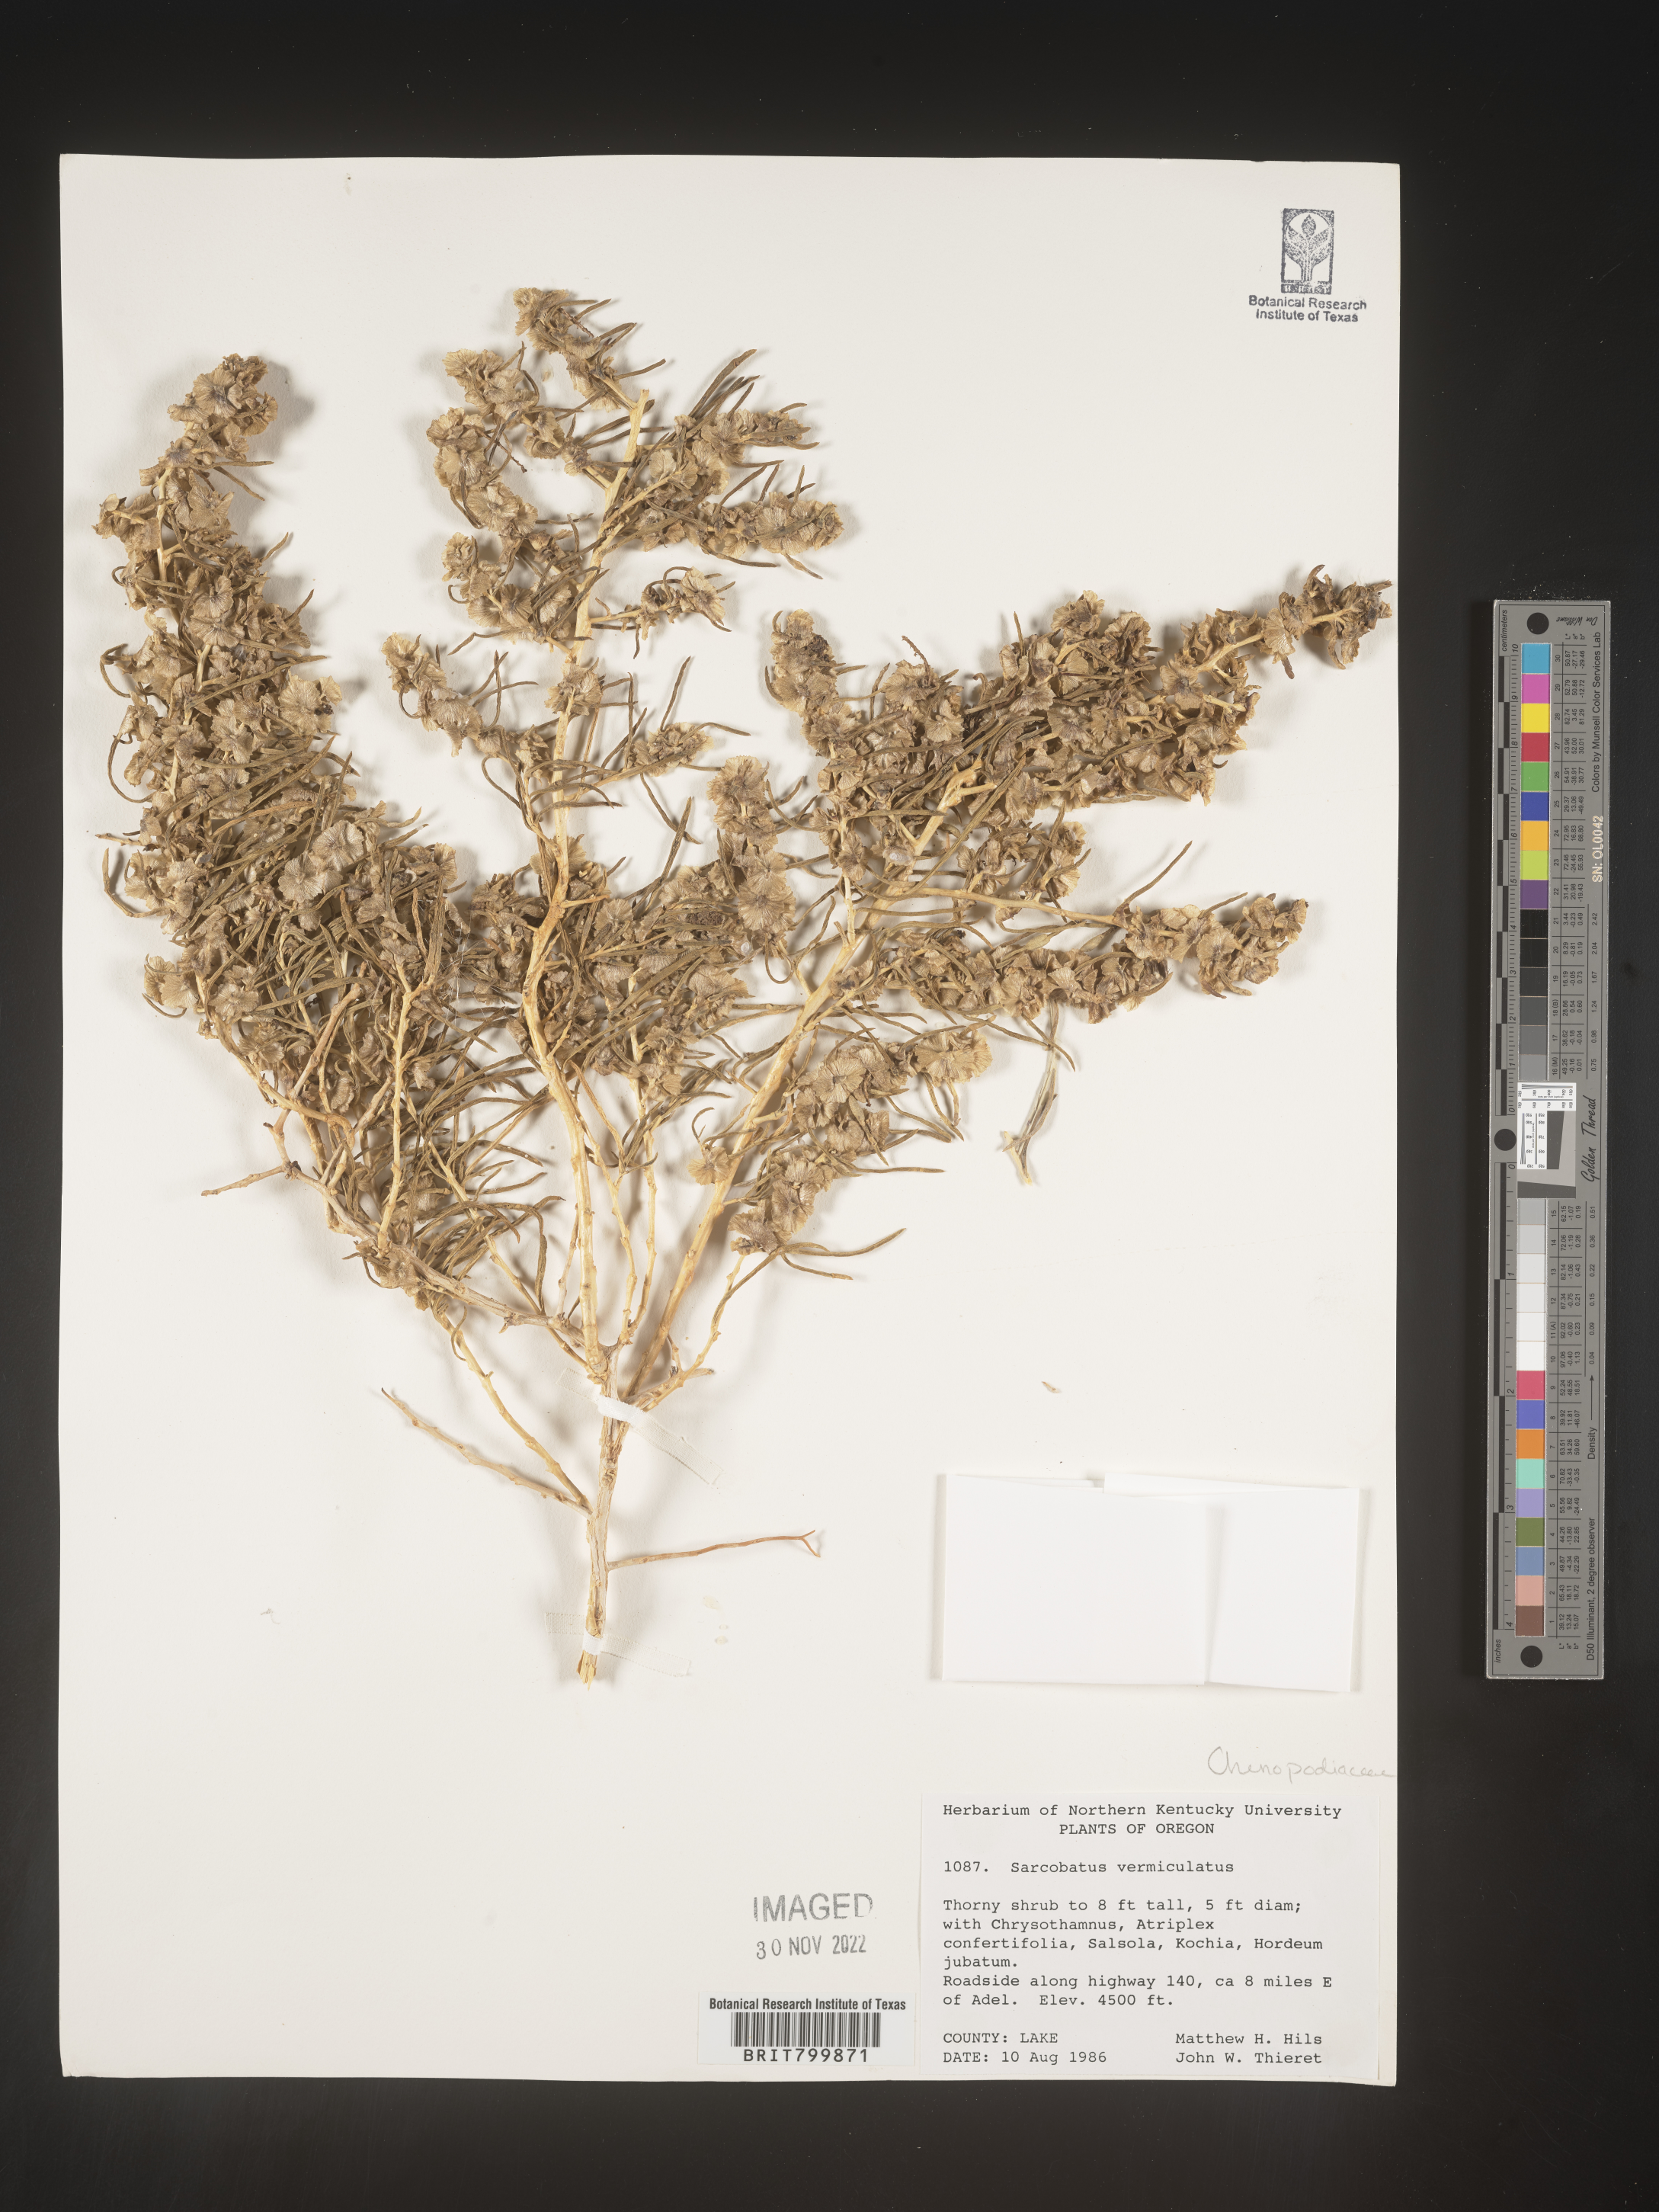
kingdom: Plantae
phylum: Tracheophyta
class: Magnoliopsida
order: Caryophyllales
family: Sarcobataceae
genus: Sarcobatus
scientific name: Sarcobatus vermiculatus
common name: Greasewood
